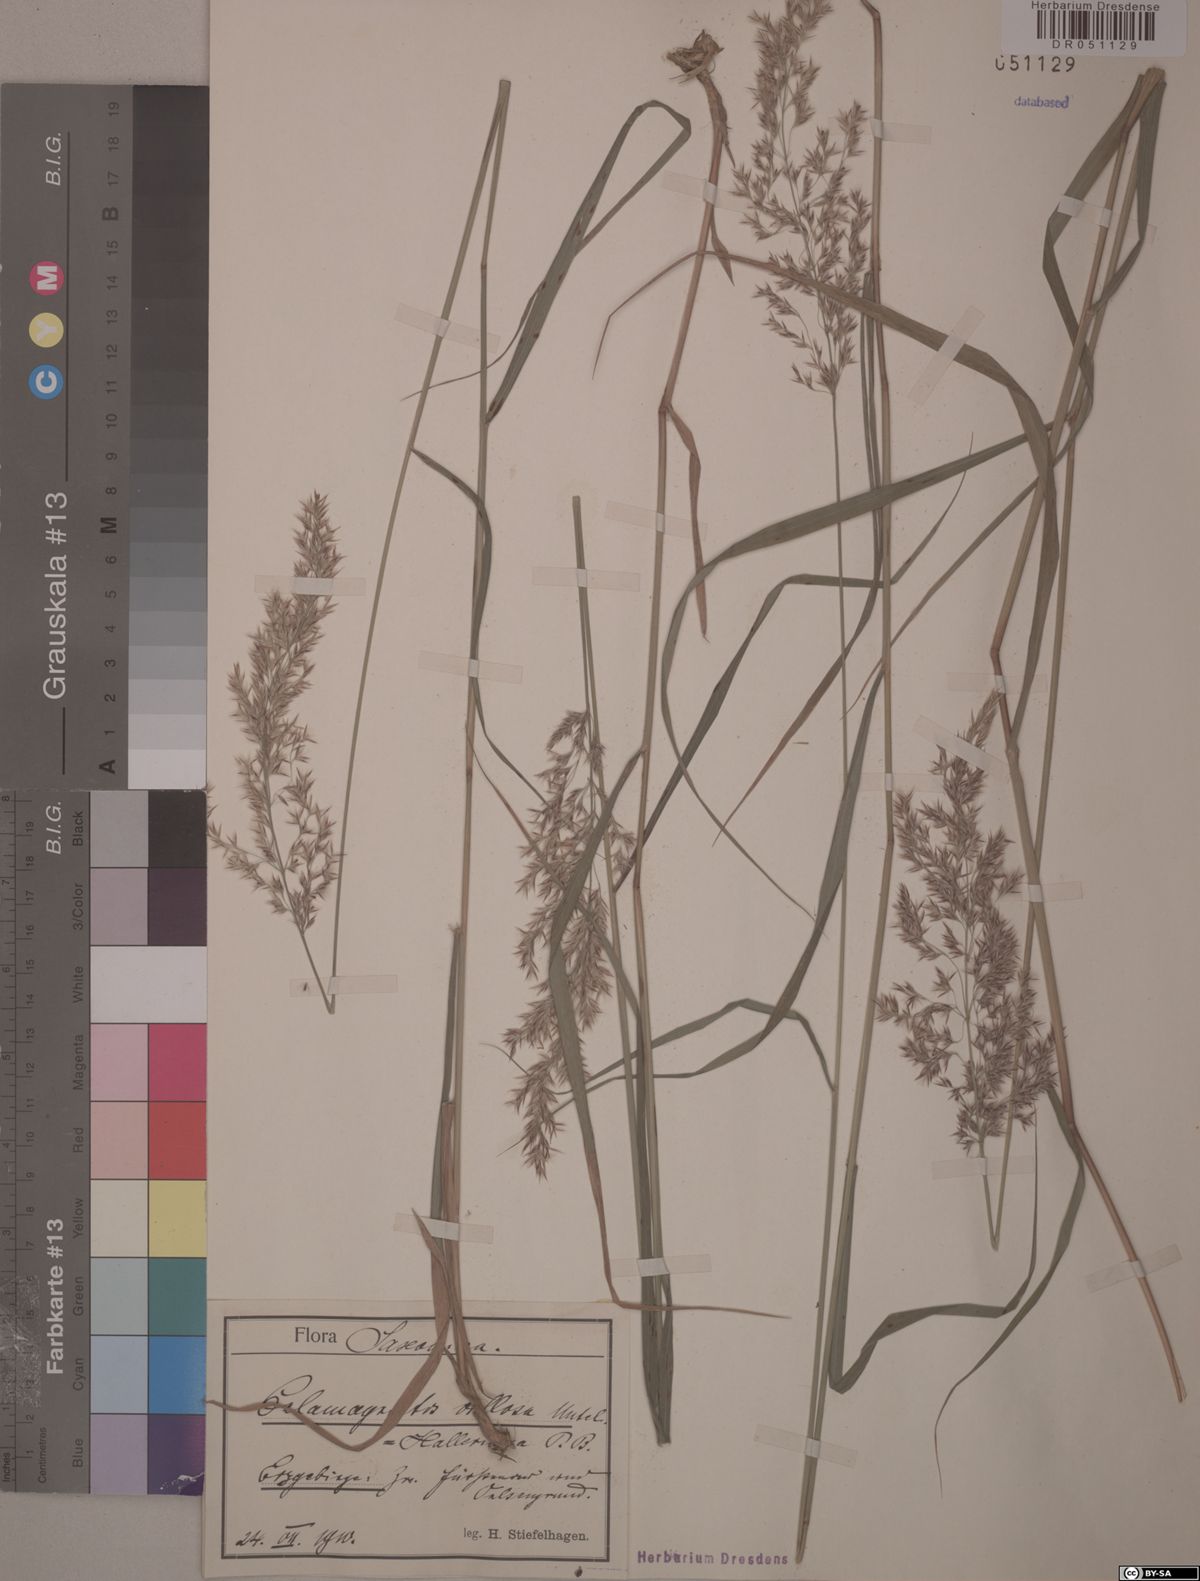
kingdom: Plantae
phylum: Tracheophyta
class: Liliopsida
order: Poales
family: Poaceae
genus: Calamagrostis
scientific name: Calamagrostis villosa
